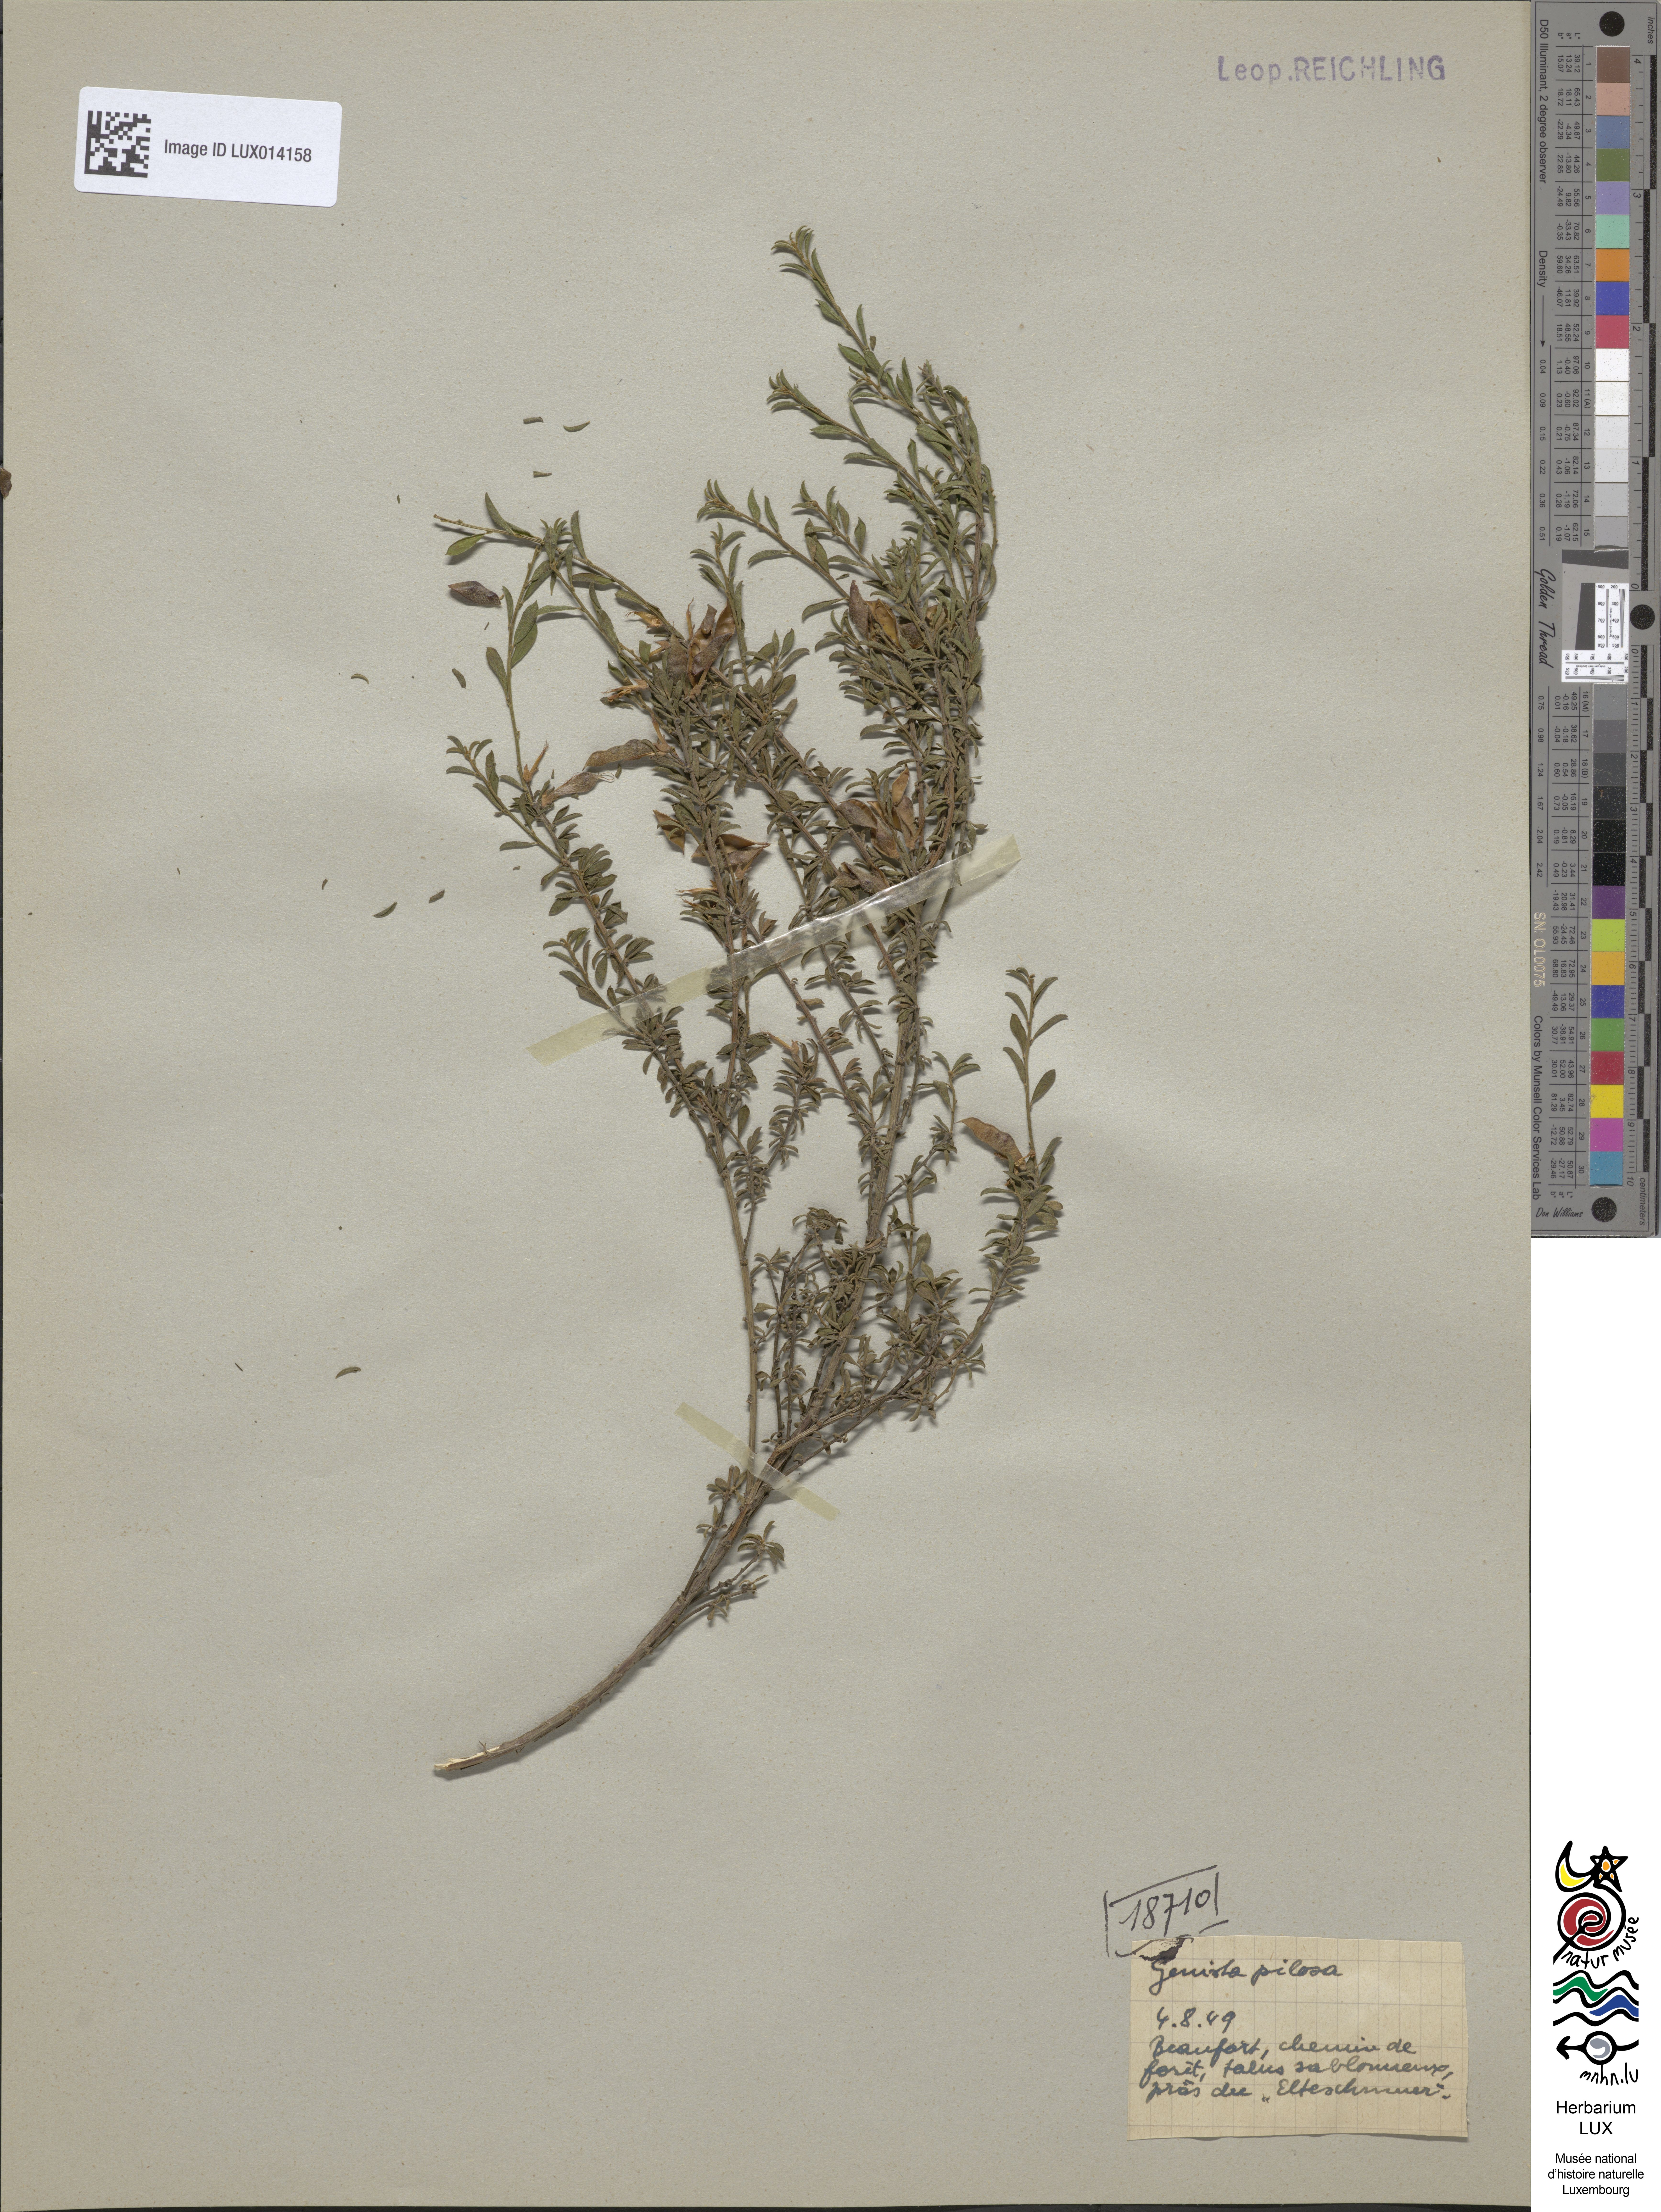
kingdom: Plantae
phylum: Tracheophyta
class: Magnoliopsida
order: Fabales
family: Fabaceae
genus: Genista
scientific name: Genista pilosa
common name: Hairy greenweed
